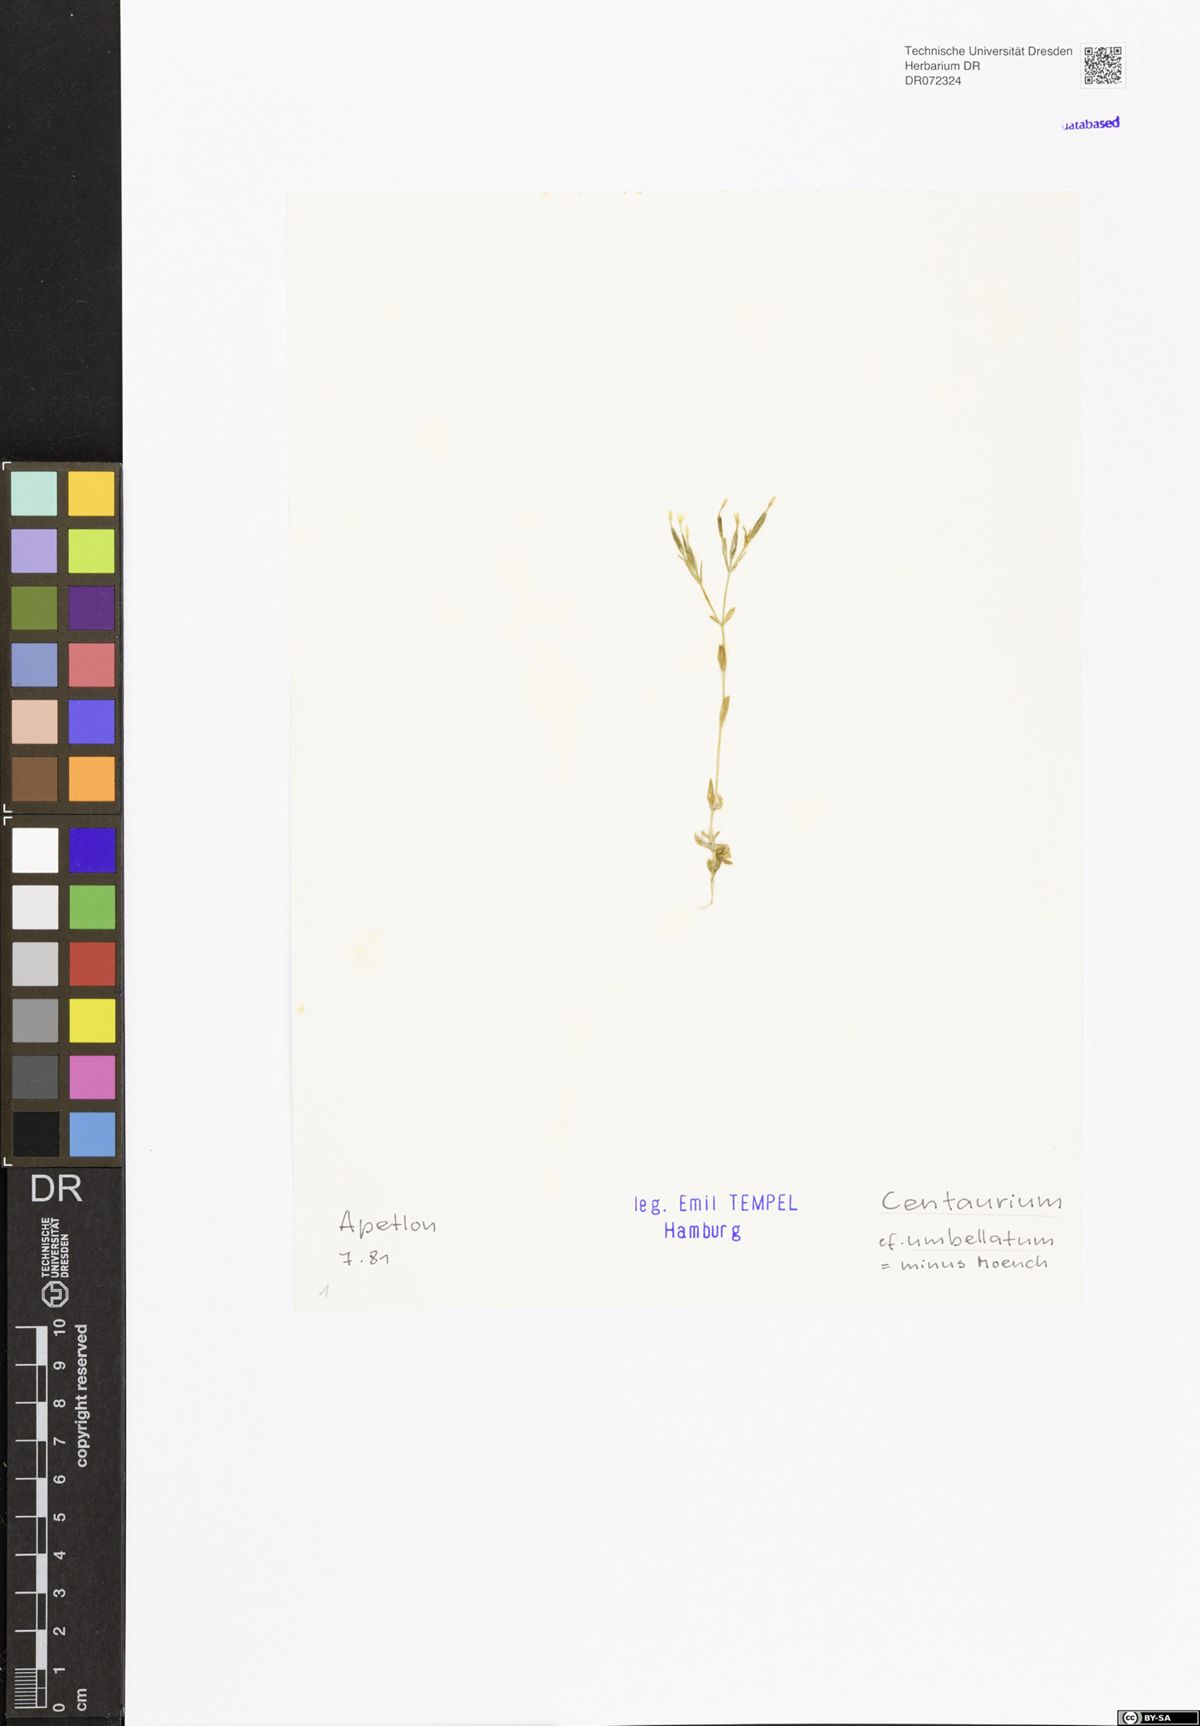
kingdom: Plantae
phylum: Tracheophyta
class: Magnoliopsida
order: Gentianales
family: Gentianaceae
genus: Centaurium
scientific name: Centaurium erythraea
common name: Common centaury
